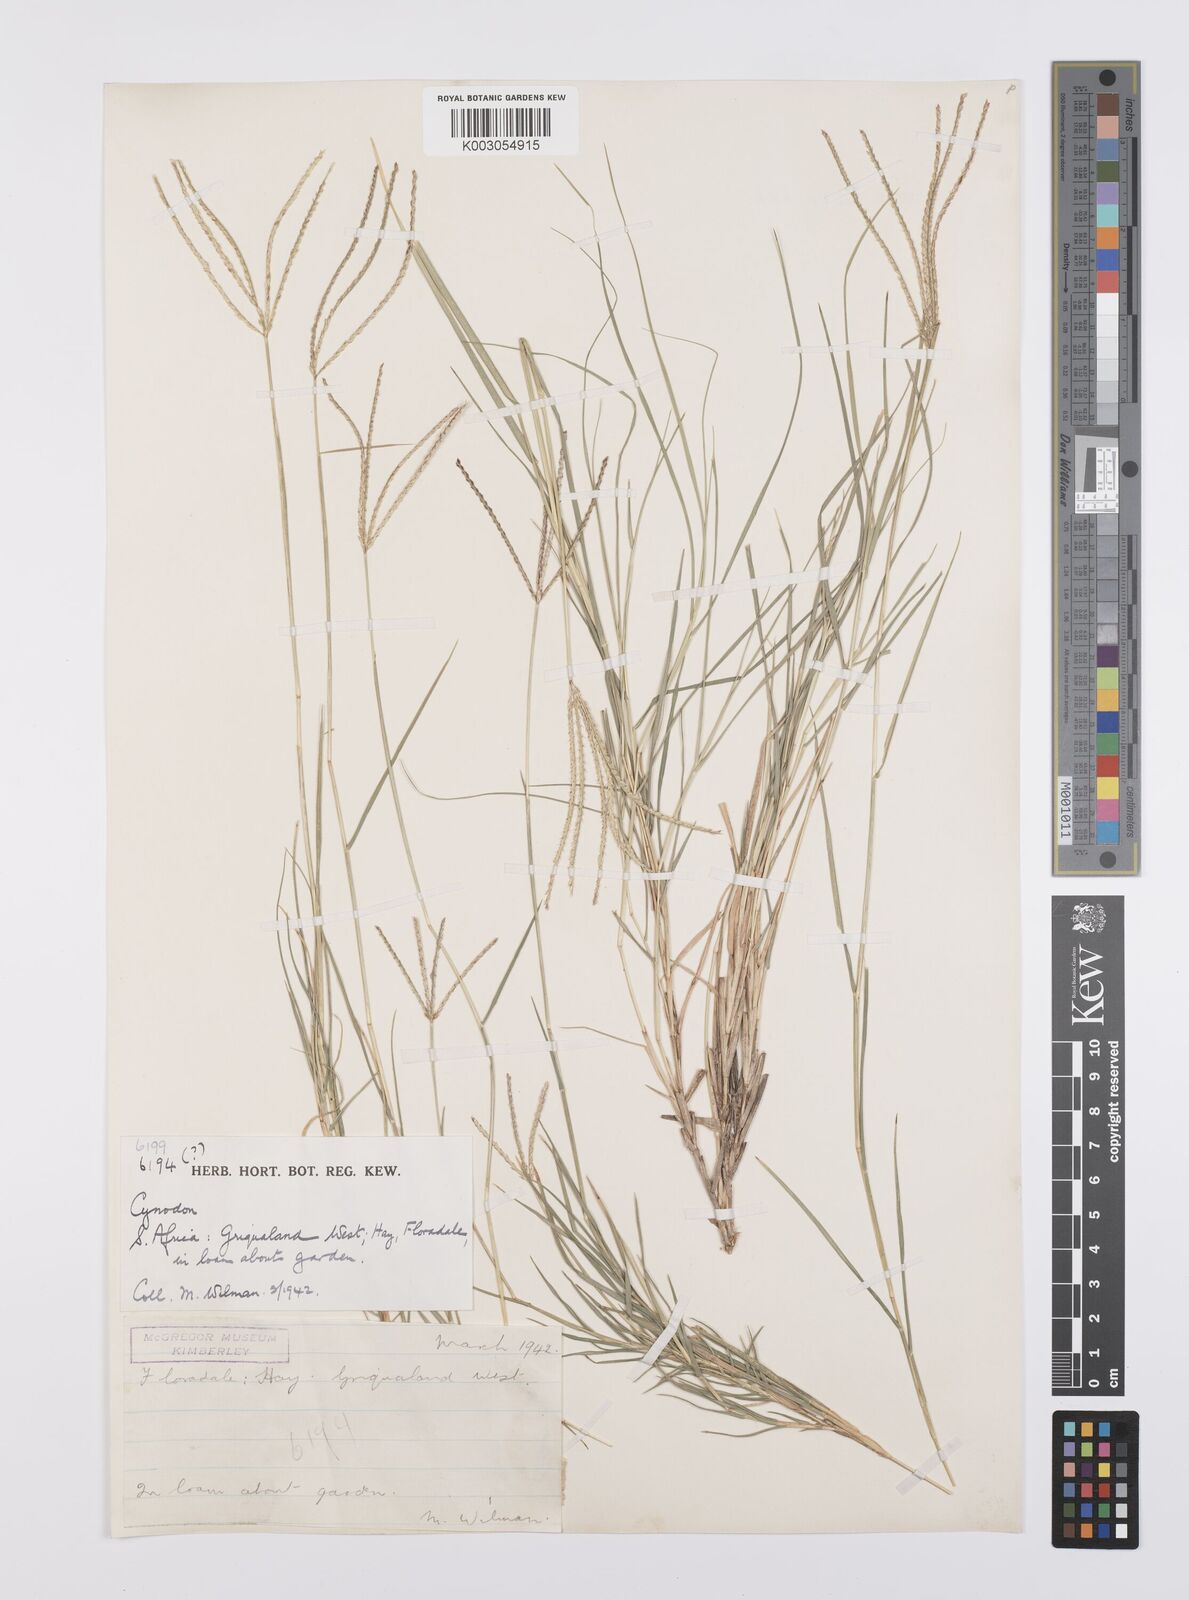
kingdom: Plantae
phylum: Tracheophyta
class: Liliopsida
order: Poales
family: Poaceae
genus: Cynodon
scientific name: Cynodon dactylon
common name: Bermuda grass
